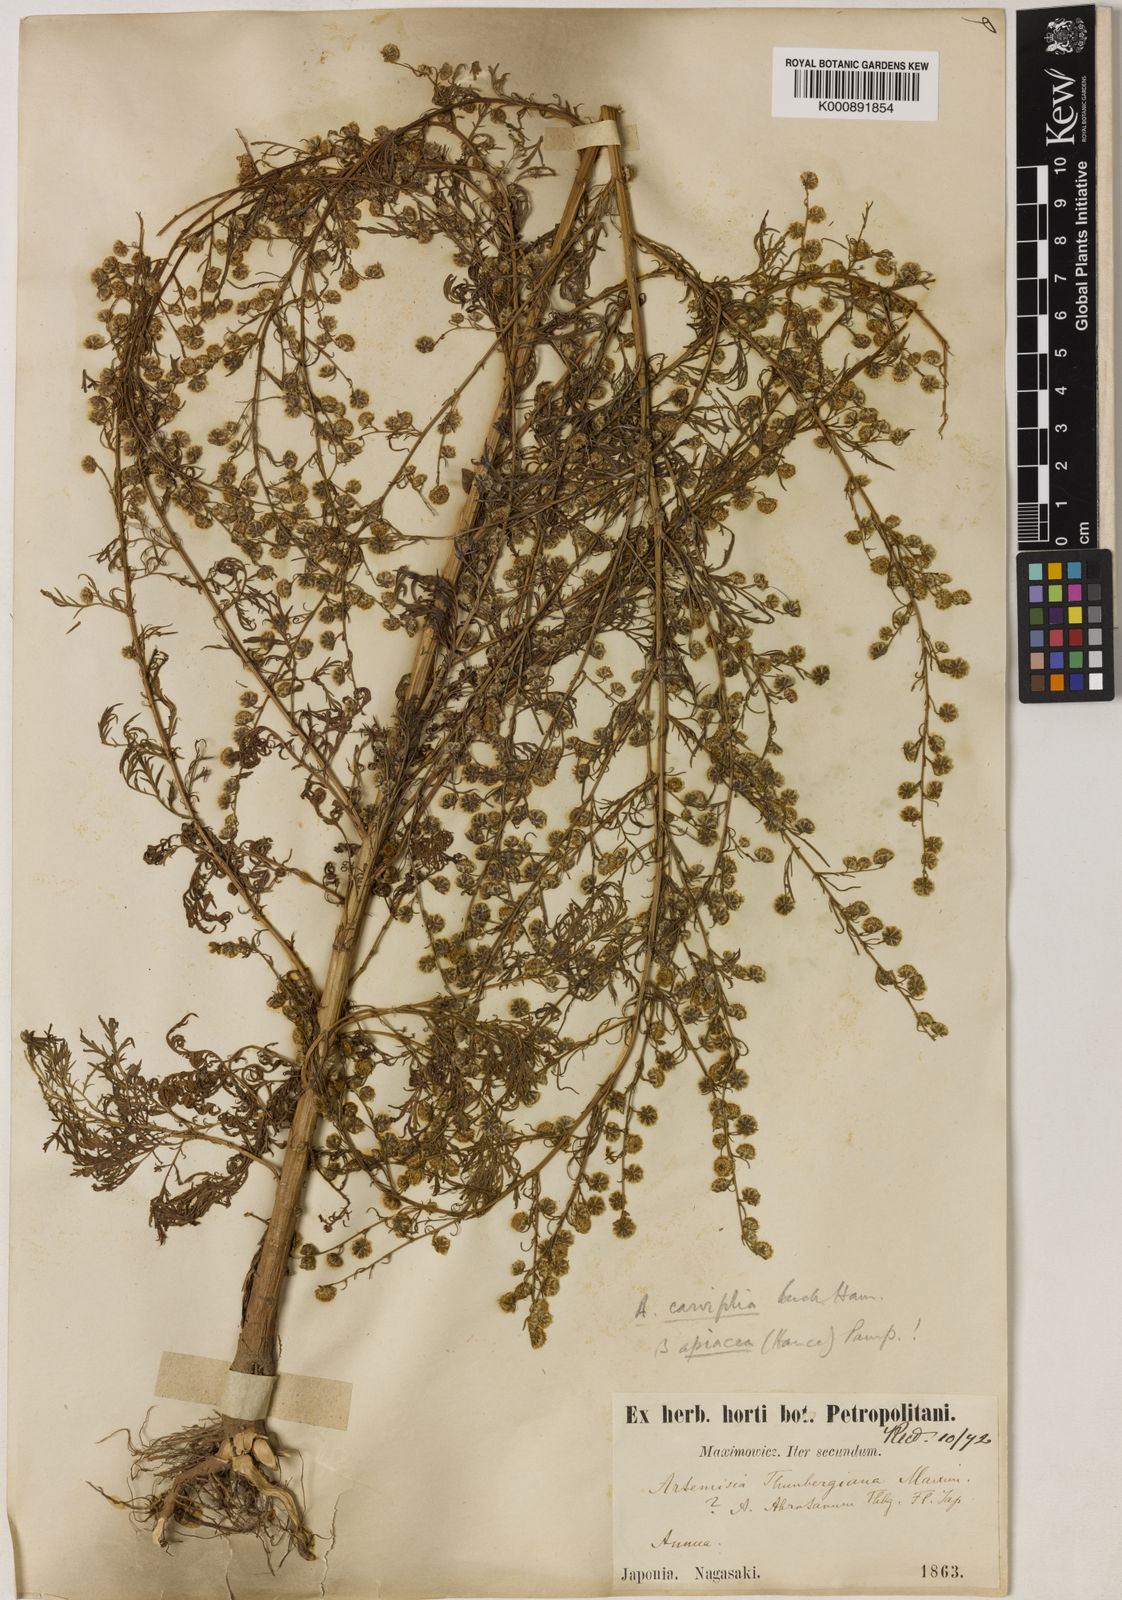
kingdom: Plantae
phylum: Tracheophyta
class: Magnoliopsida
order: Asterales
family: Asteraceae
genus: Artemisia
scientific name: Artemisia
